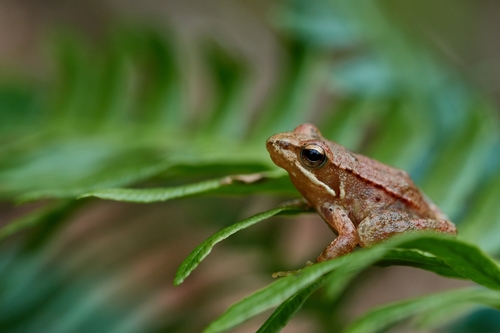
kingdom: Animalia
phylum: Chordata
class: Amphibia
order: Anura
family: Ranidae
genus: Rana
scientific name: Rana iberica
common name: Iberian frog
